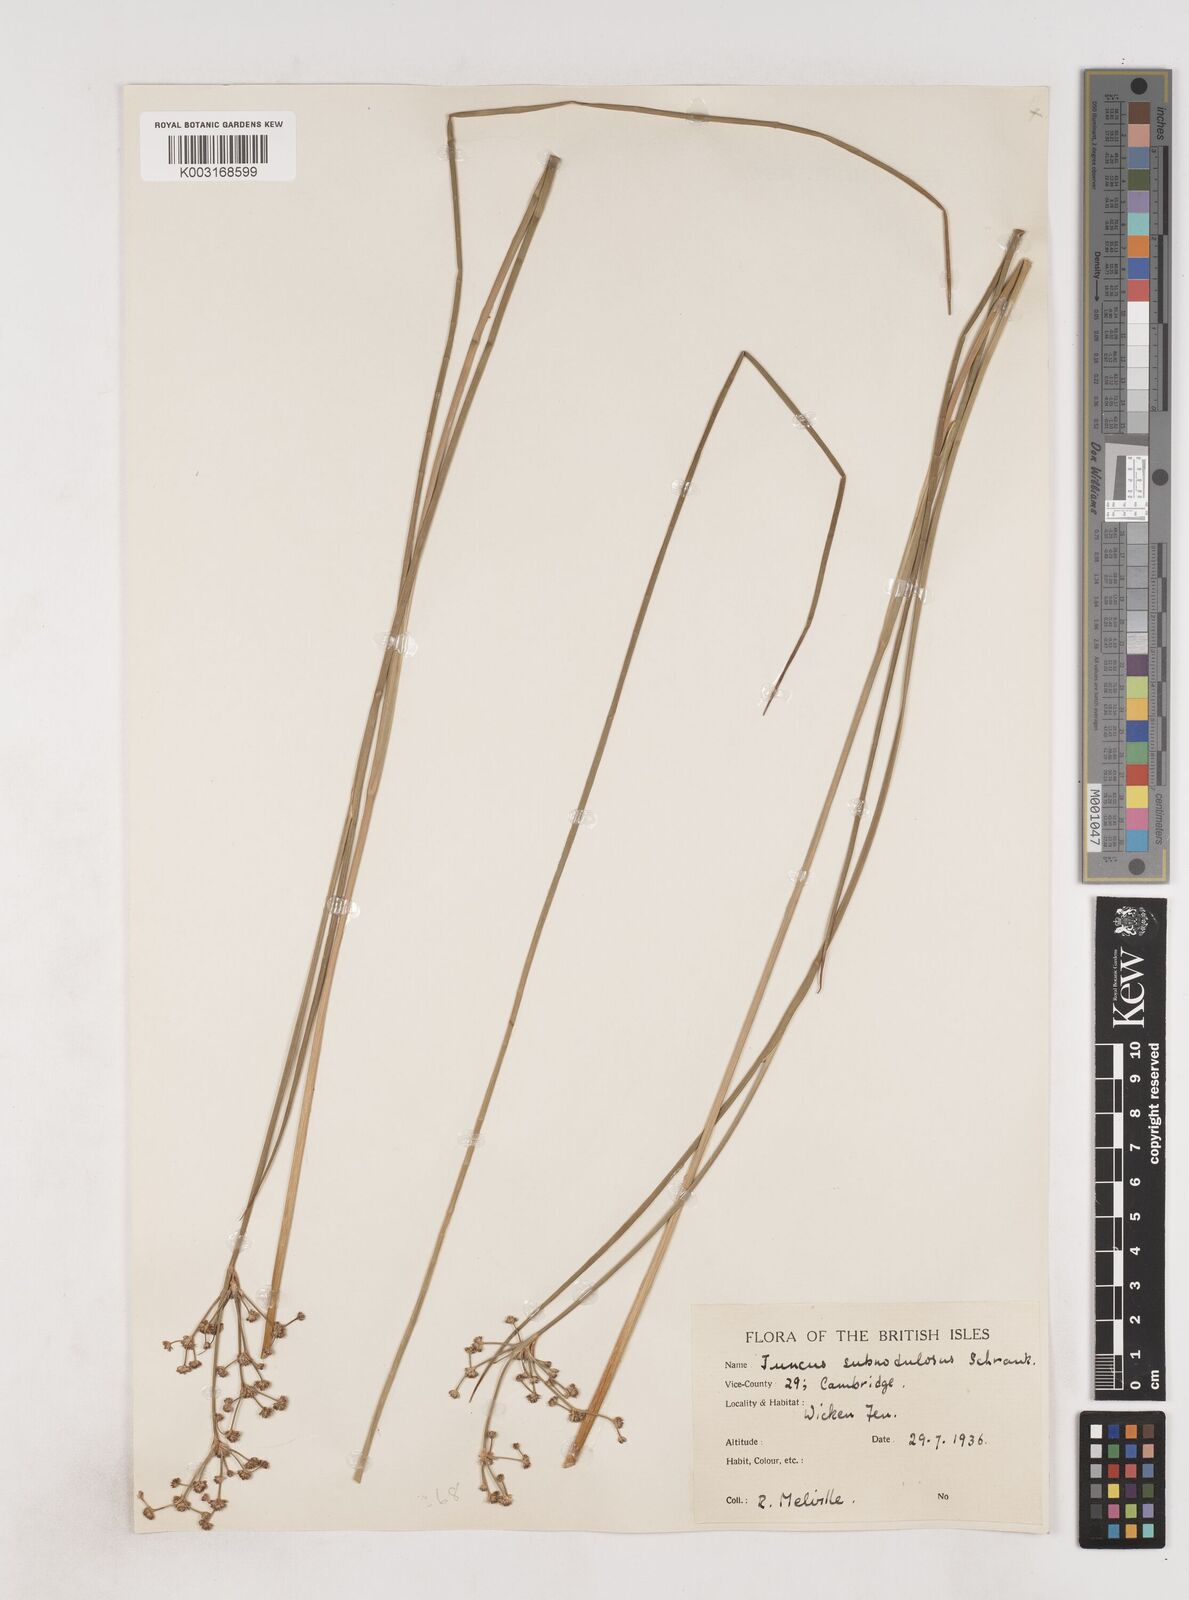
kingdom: Plantae
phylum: Tracheophyta
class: Liliopsida
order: Poales
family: Juncaceae
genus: Juncus
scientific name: Juncus subnodulosus
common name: Blunt-flowered rush
